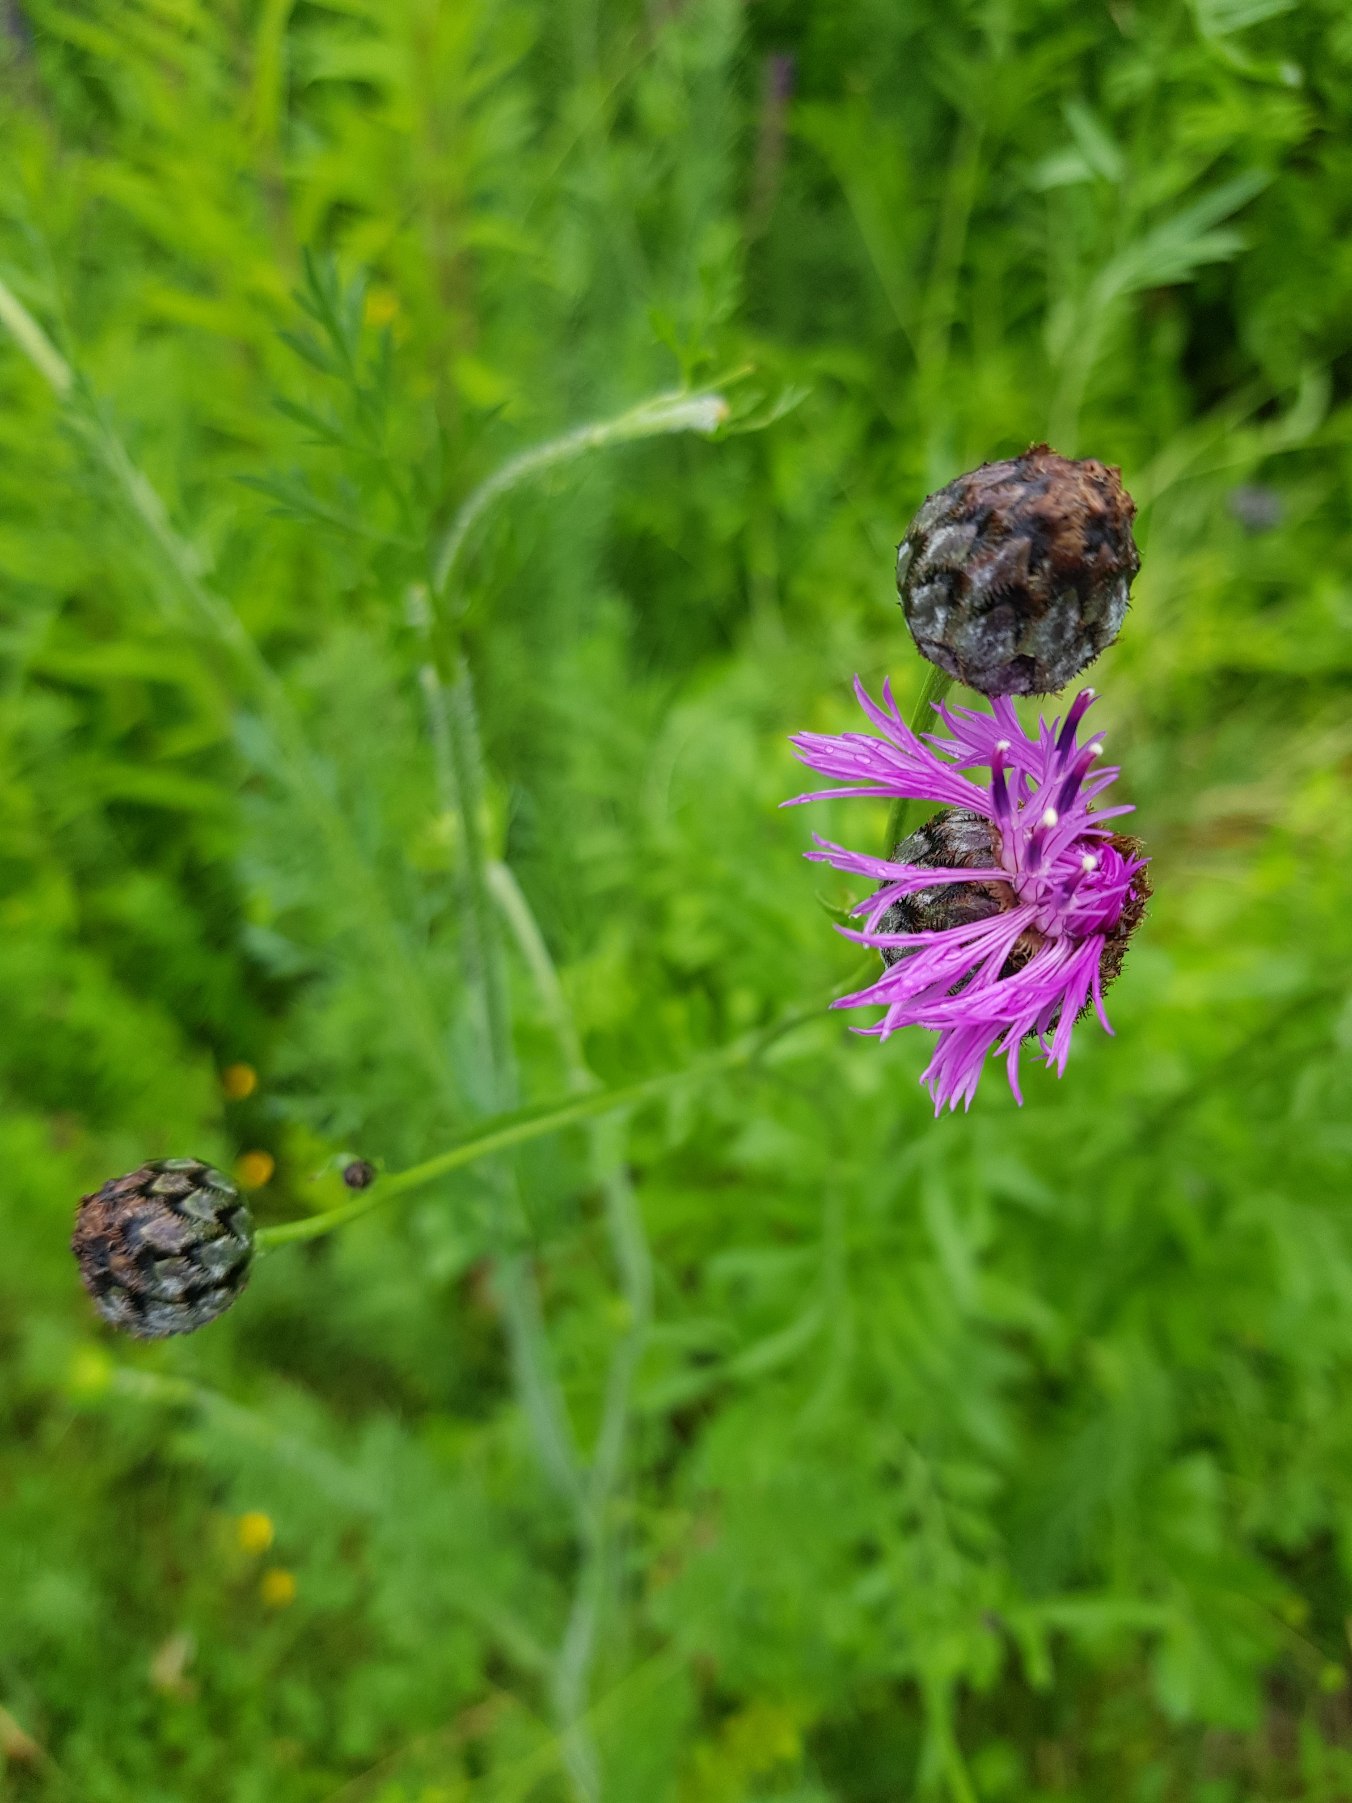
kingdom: Plantae
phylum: Tracheophyta
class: Magnoliopsida
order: Asterales
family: Asteraceae
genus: Centaurea
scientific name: Centaurea scabiosa
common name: Stor knopurt
